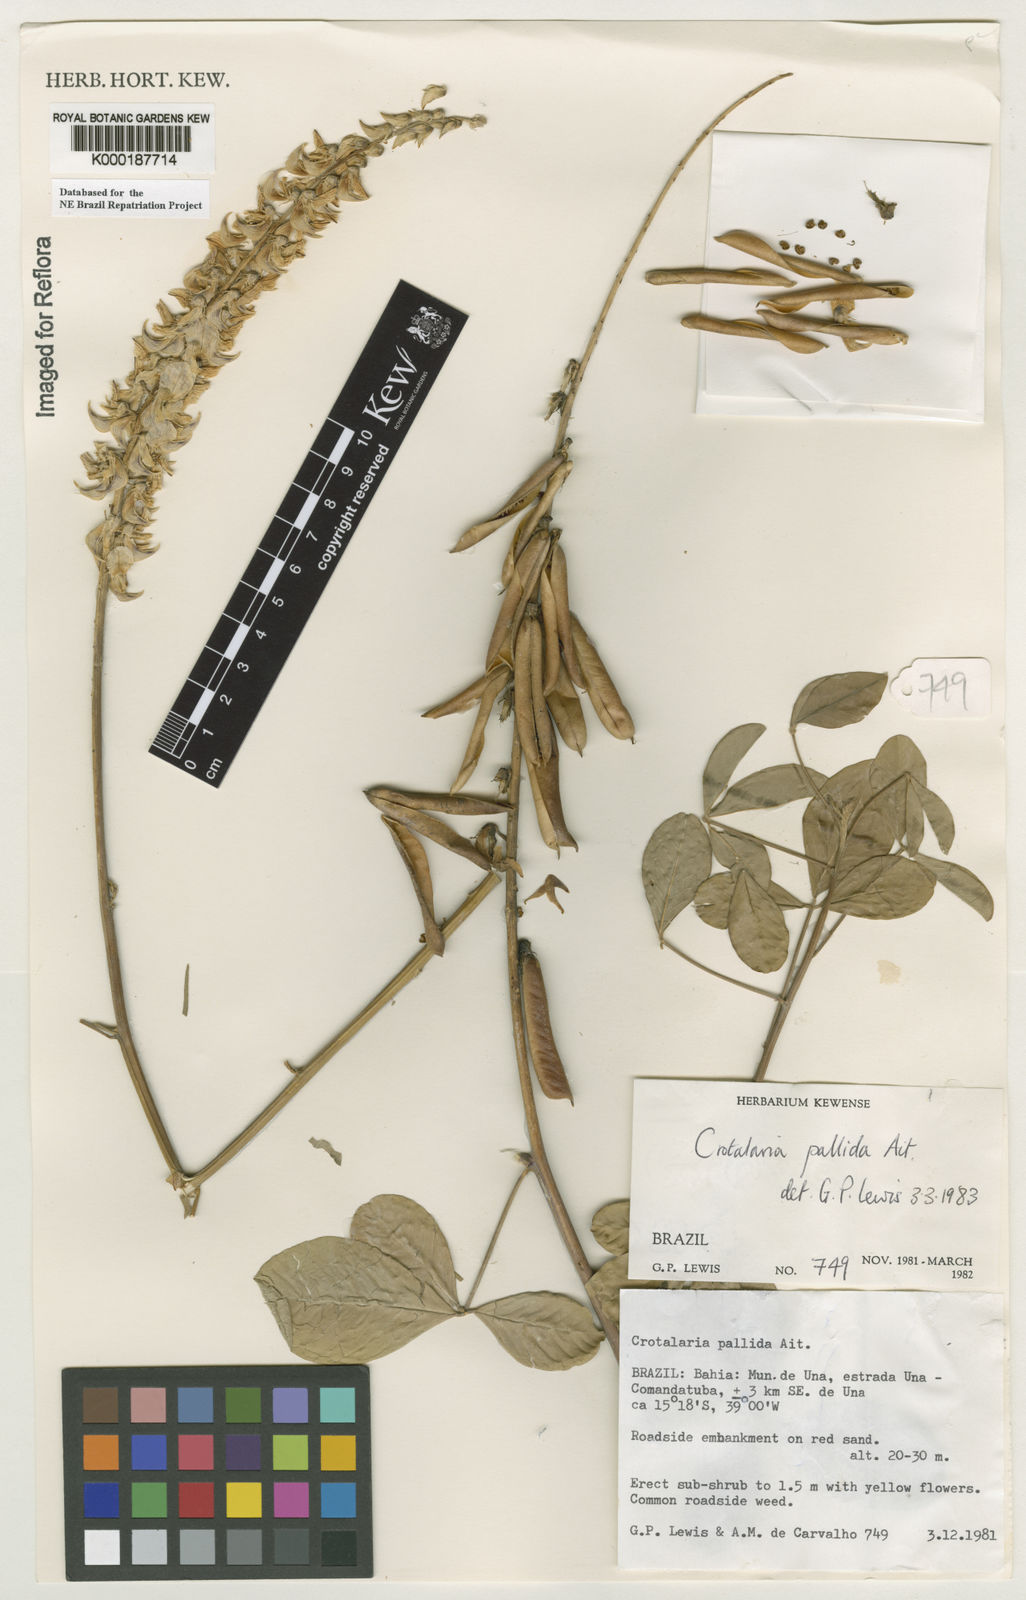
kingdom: Plantae
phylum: Tracheophyta
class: Magnoliopsida
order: Fabales
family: Fabaceae
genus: Crotalaria
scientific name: Crotalaria pallida
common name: Smooth rattlebox
